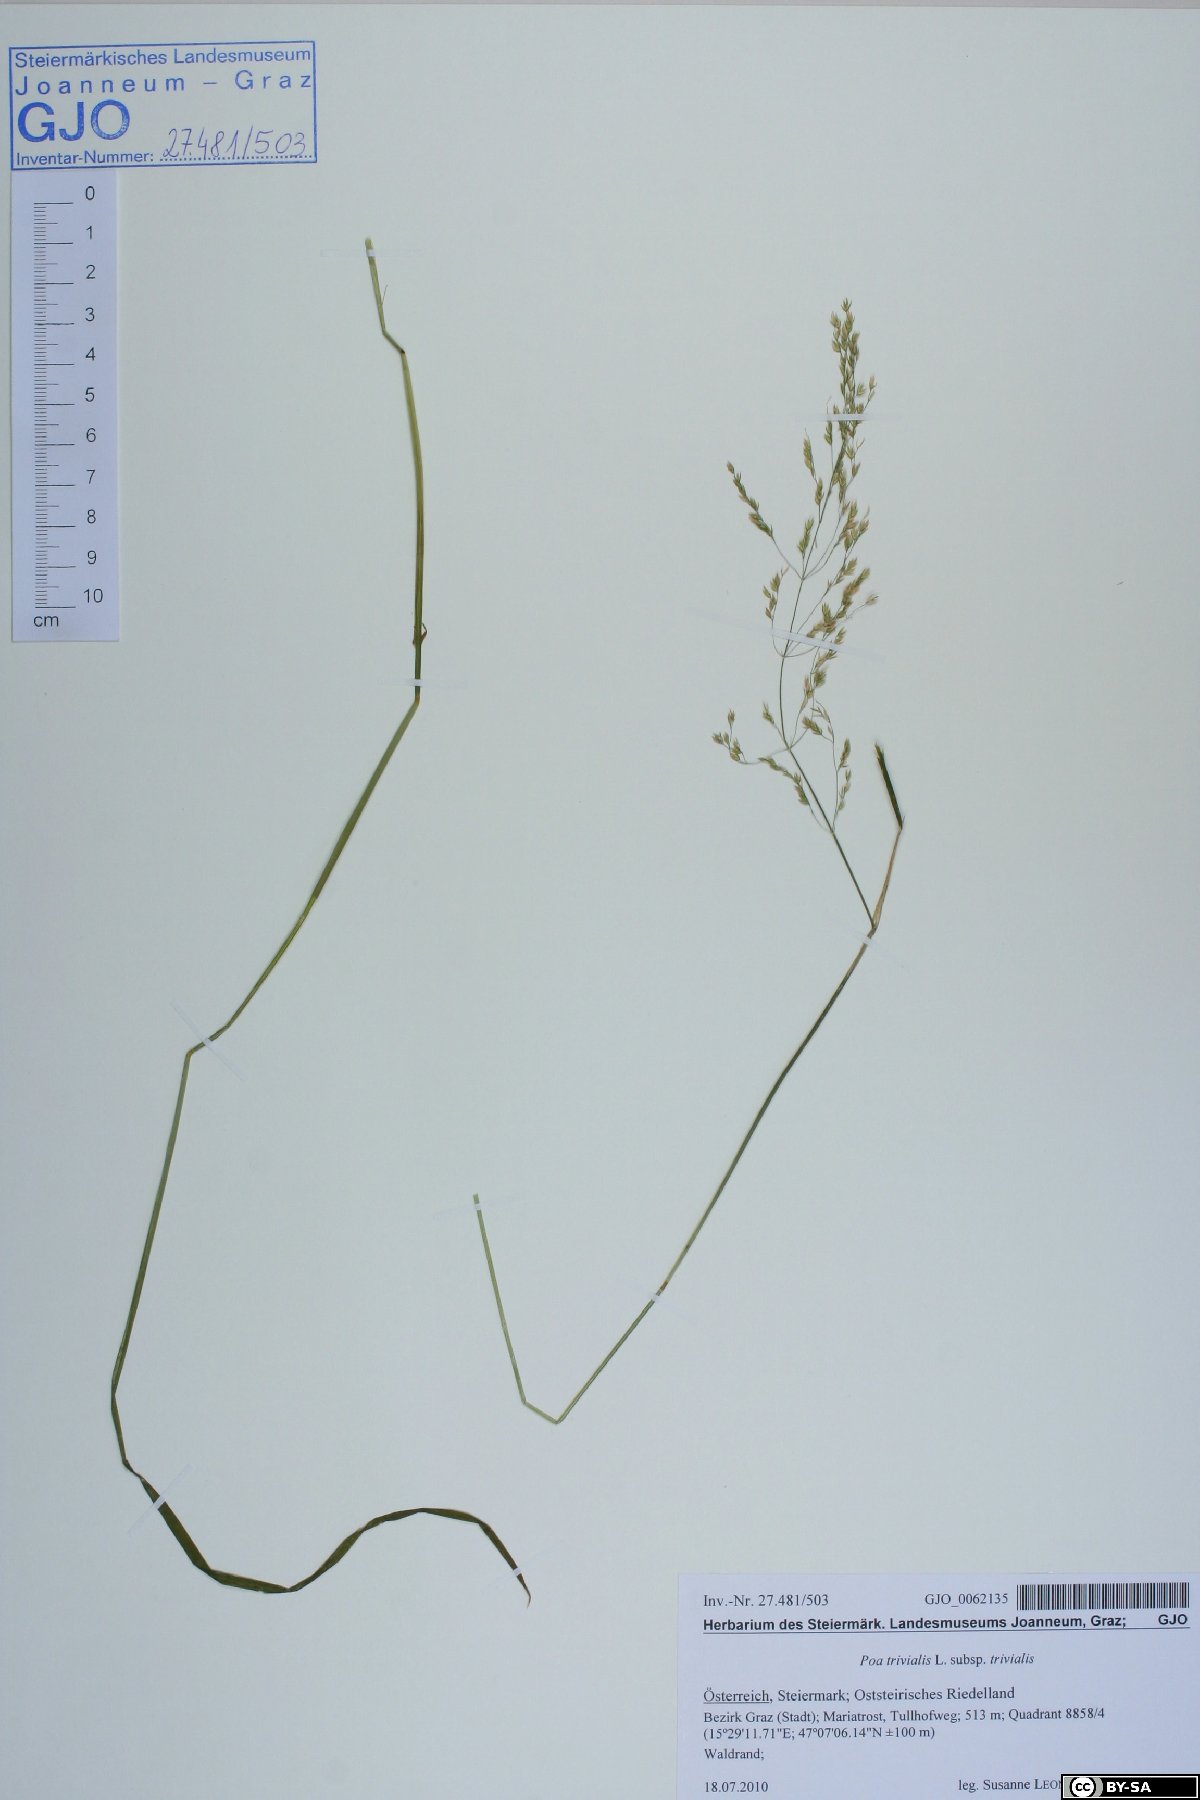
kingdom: Plantae
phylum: Tracheophyta
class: Liliopsida
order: Poales
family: Poaceae
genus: Poa
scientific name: Poa trivialis
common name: Rough bluegrass
